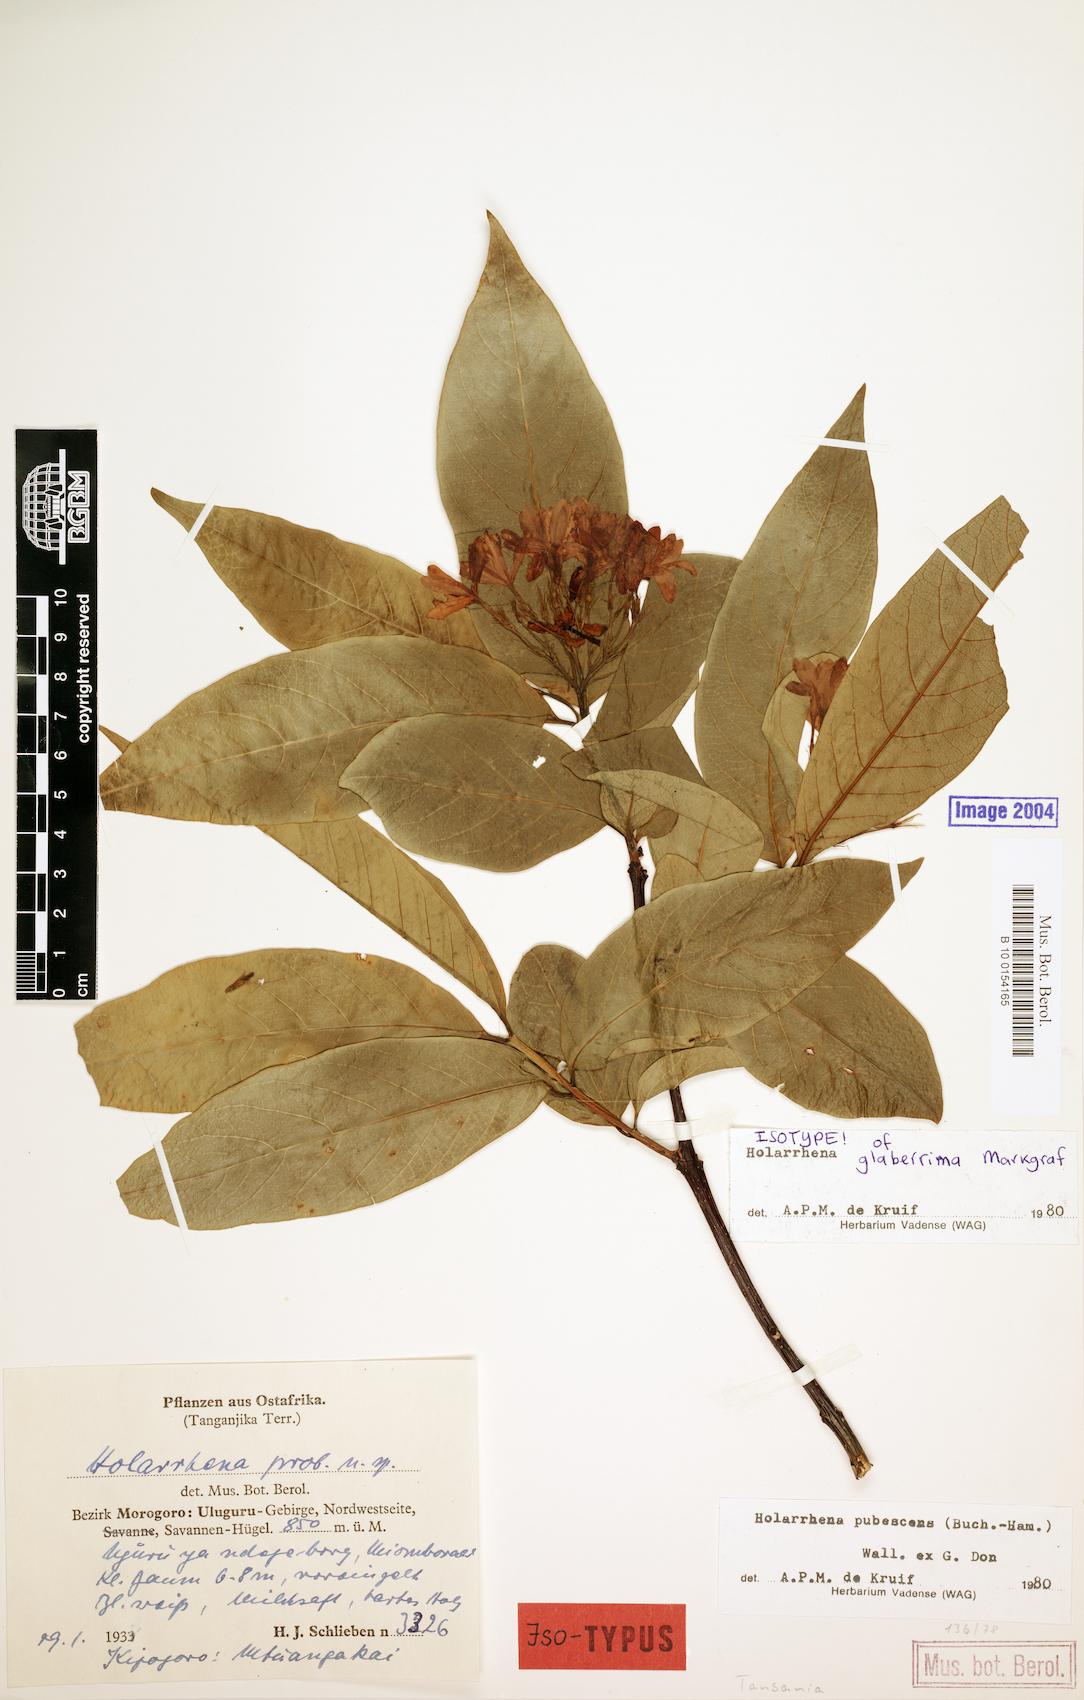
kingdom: Plantae
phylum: Tracheophyta
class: Magnoliopsida
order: Gentianales
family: Apocynaceae
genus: Holarrhena
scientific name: Holarrhena pubescens
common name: Bitter oleander
